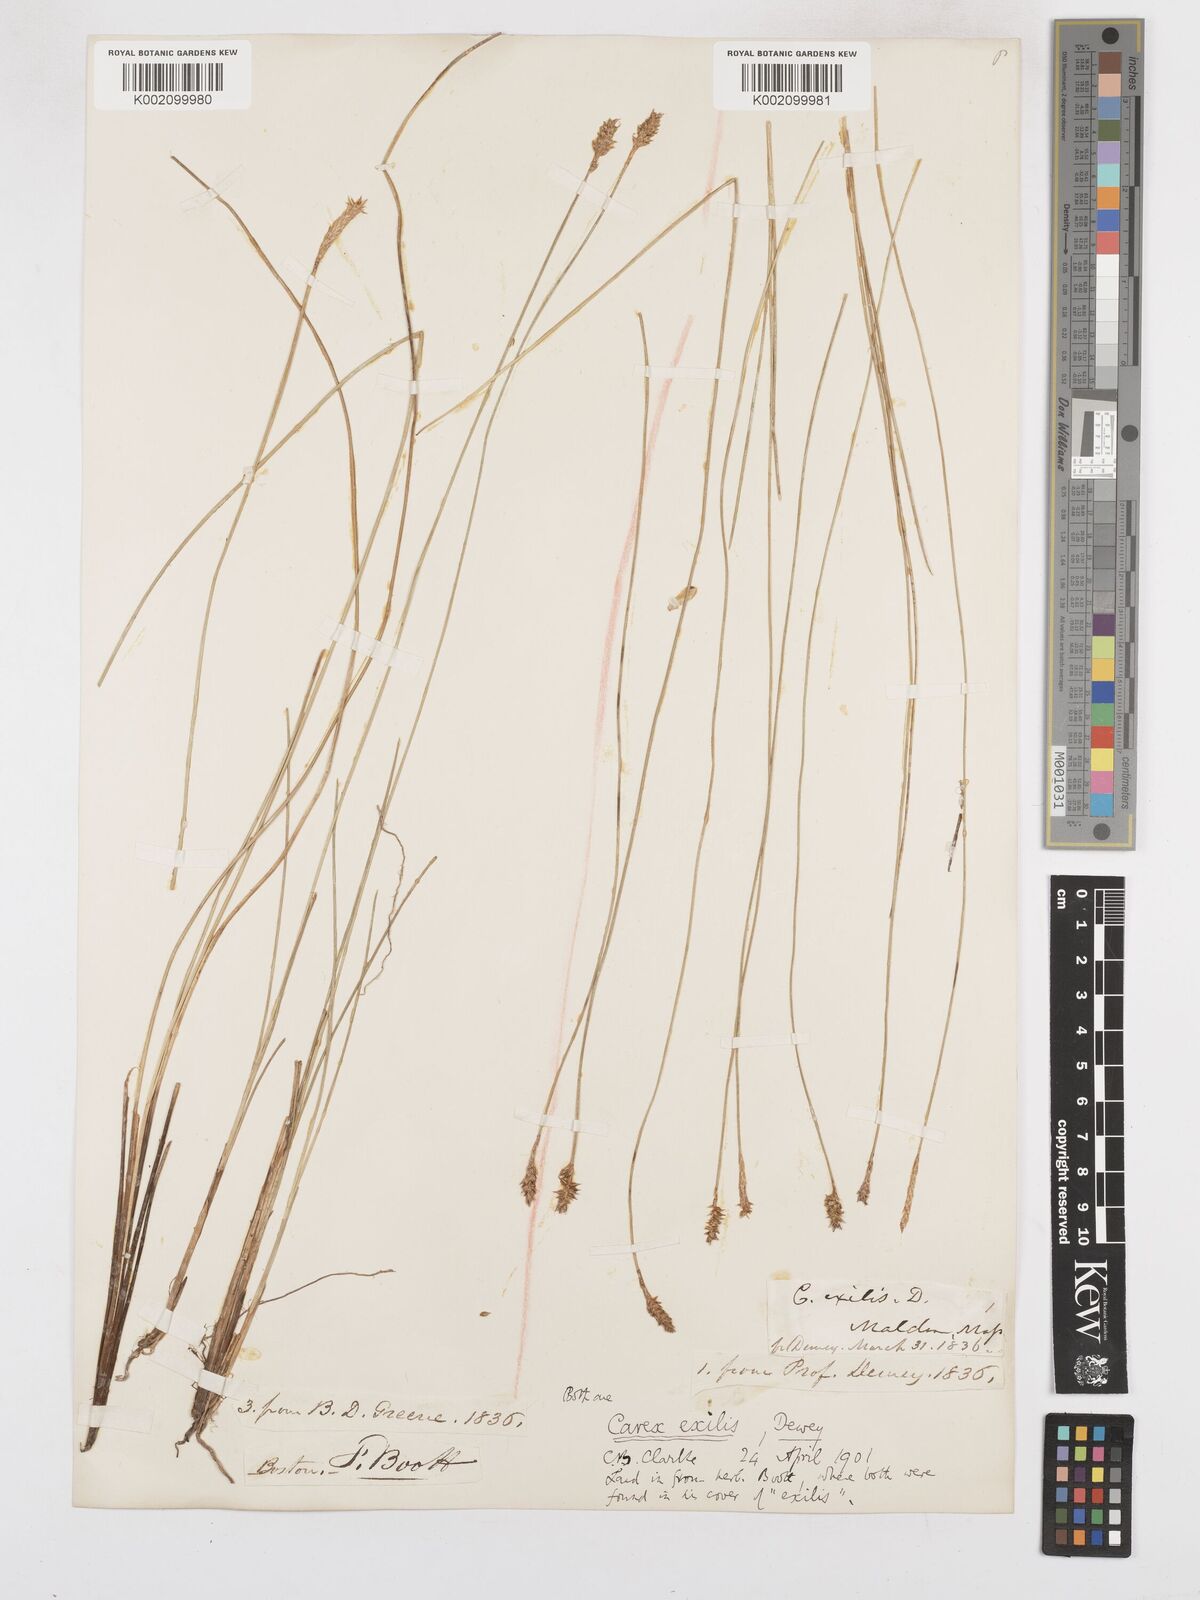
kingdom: Plantae
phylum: Tracheophyta
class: Liliopsida
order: Poales
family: Cyperaceae
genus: Carex
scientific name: Carex exilis
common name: Coastal sedge
